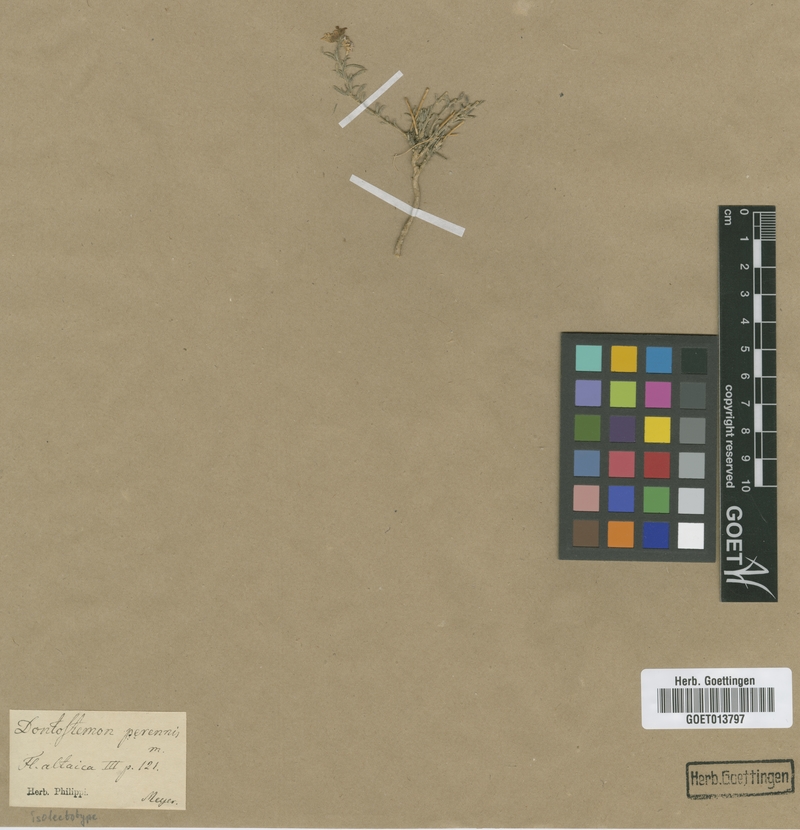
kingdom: Plantae
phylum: Tracheophyta
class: Magnoliopsida
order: Brassicales
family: Brassicaceae
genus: Dontostemon
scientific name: Dontostemon perennis
